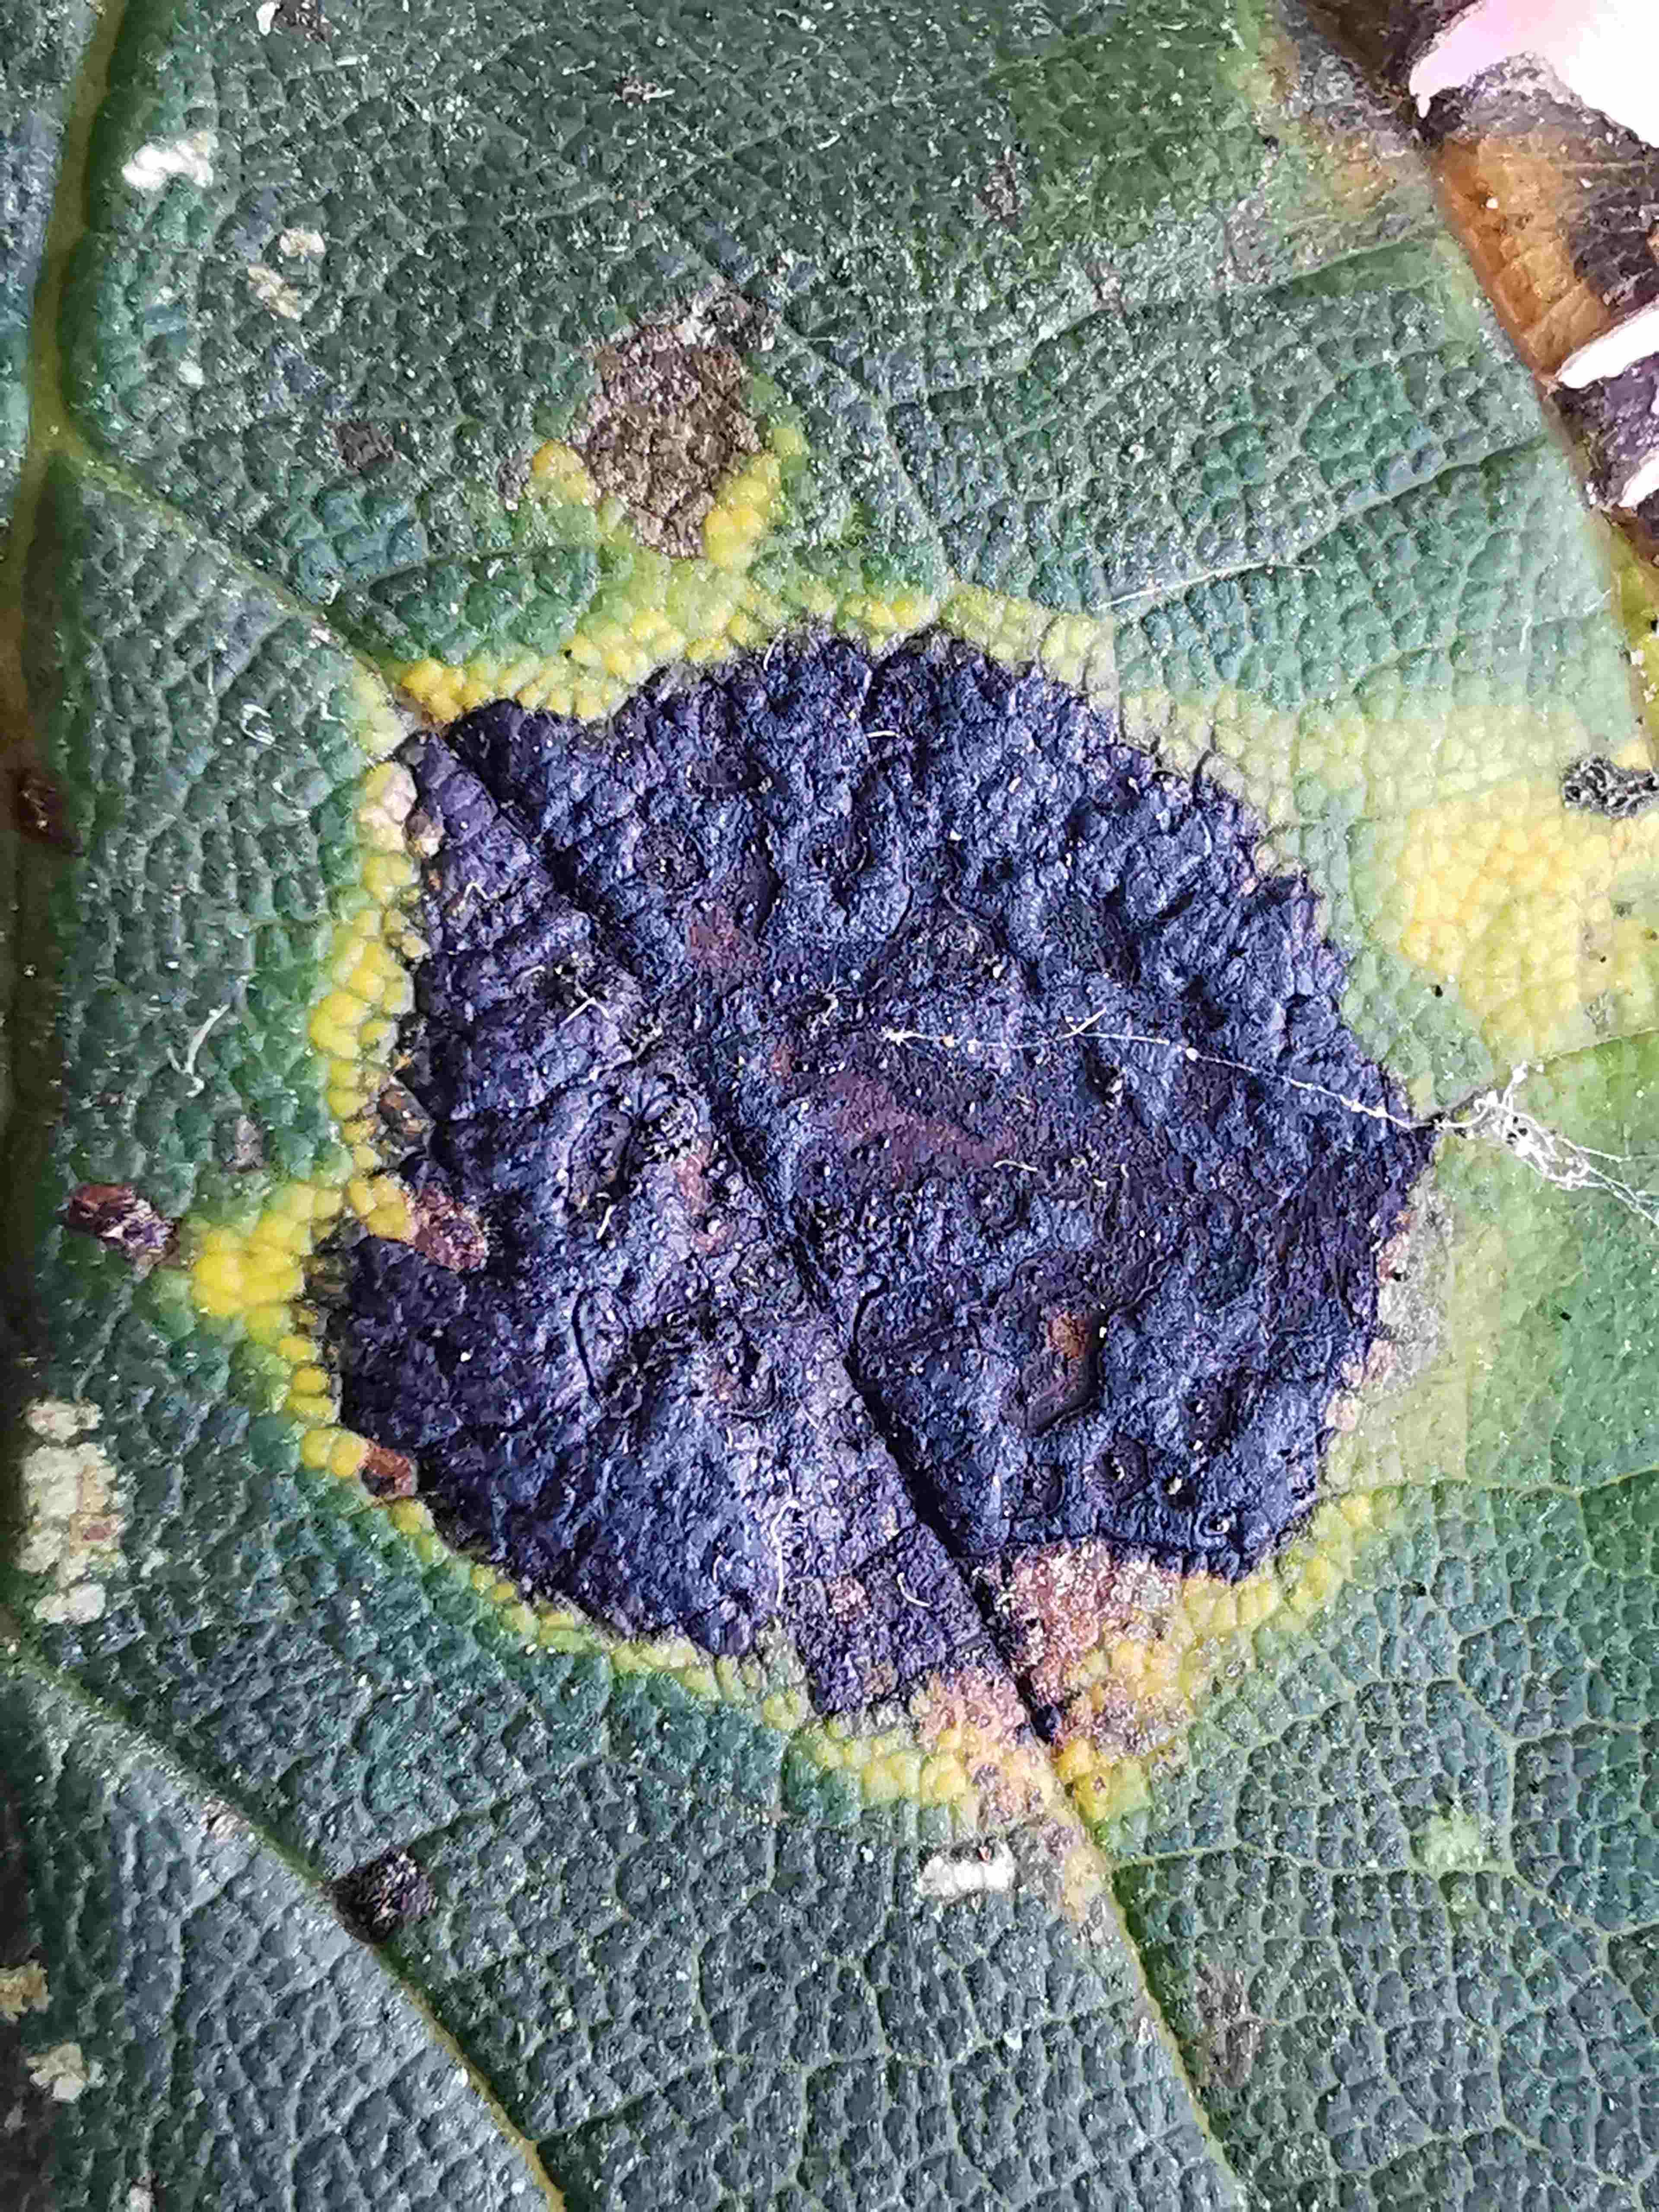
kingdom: Fungi
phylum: Ascomycota
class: Leotiomycetes
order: Rhytismatales
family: Rhytismataceae
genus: Rhytisma
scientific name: Rhytisma acerinum
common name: ahorn-rynkeplet
